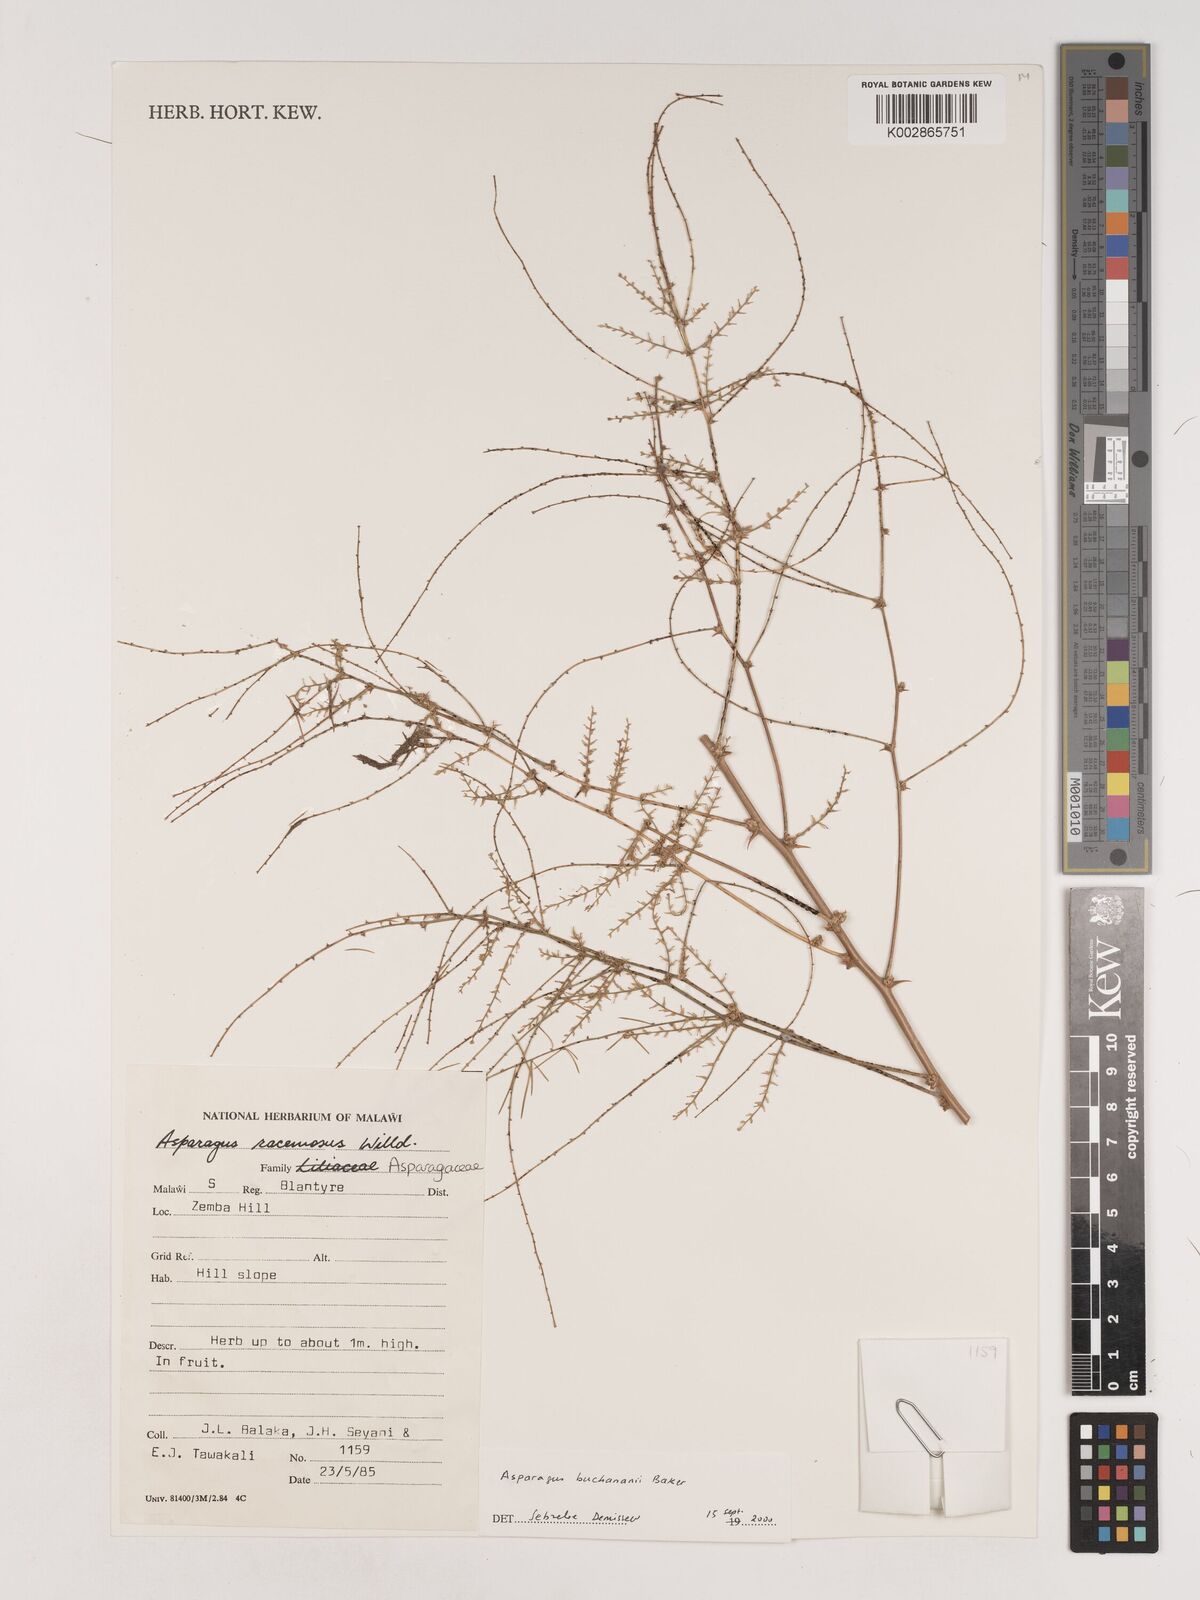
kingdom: Plantae
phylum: Tracheophyta
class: Liliopsida
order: Asparagales
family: Asparagaceae
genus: Asparagus
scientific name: Asparagus racemosus
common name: Asparagus-fern
